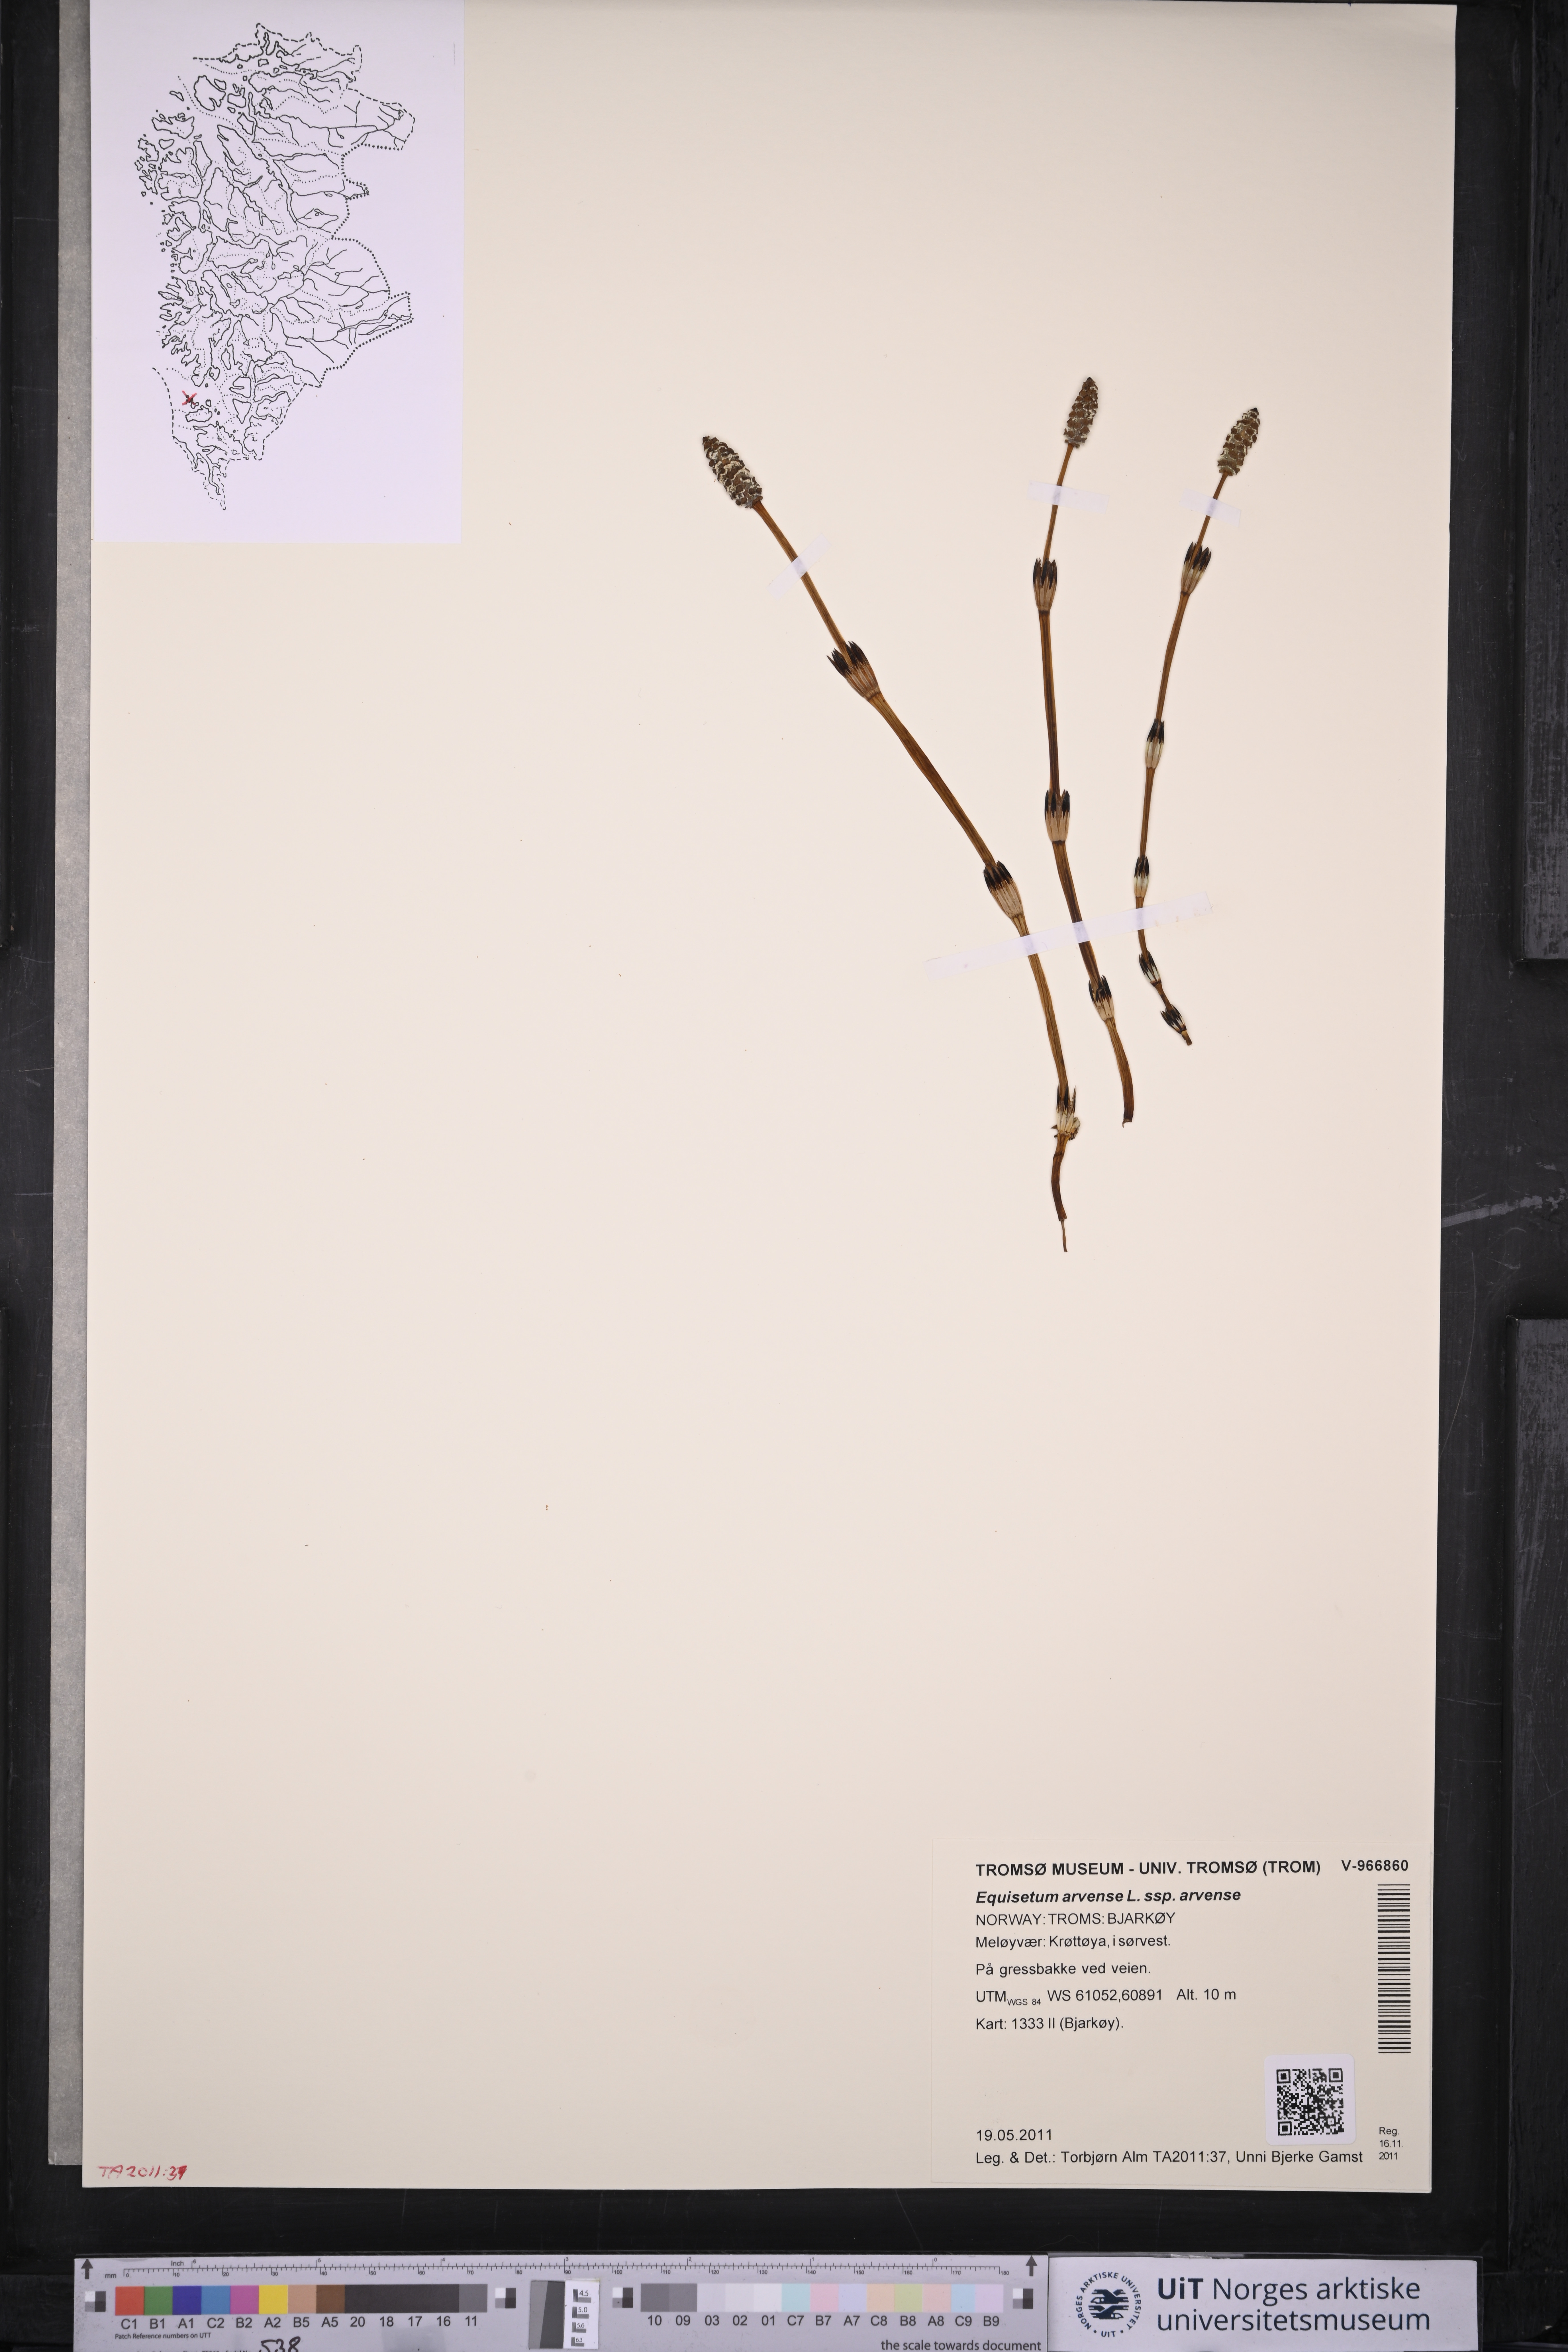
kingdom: Plantae
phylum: Tracheophyta
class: Polypodiopsida
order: Equisetales
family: Equisetaceae
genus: Equisetum
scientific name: Equisetum arvense
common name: Field horsetail
